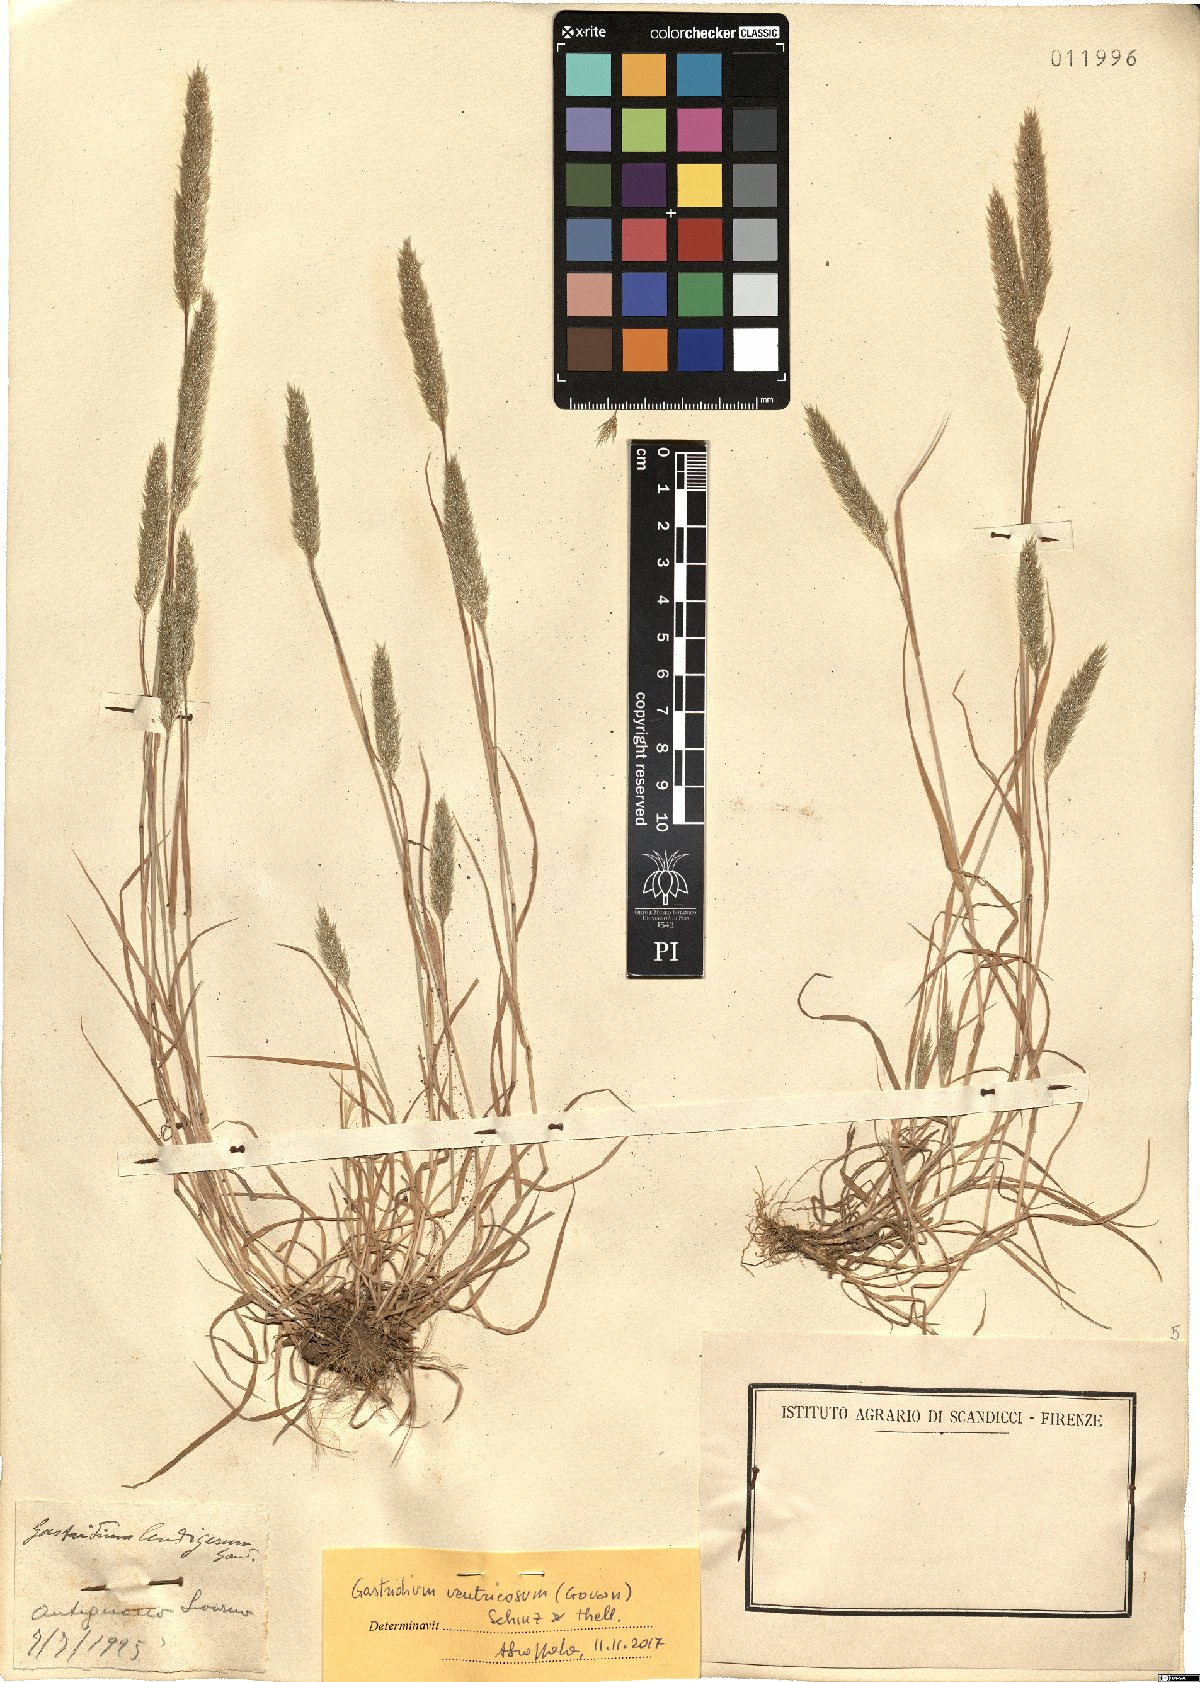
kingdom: Plantae
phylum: Tracheophyta
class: Liliopsida
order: Poales
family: Poaceae
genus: Gastridium
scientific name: Gastridium ventricosum
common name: Nit-grass
